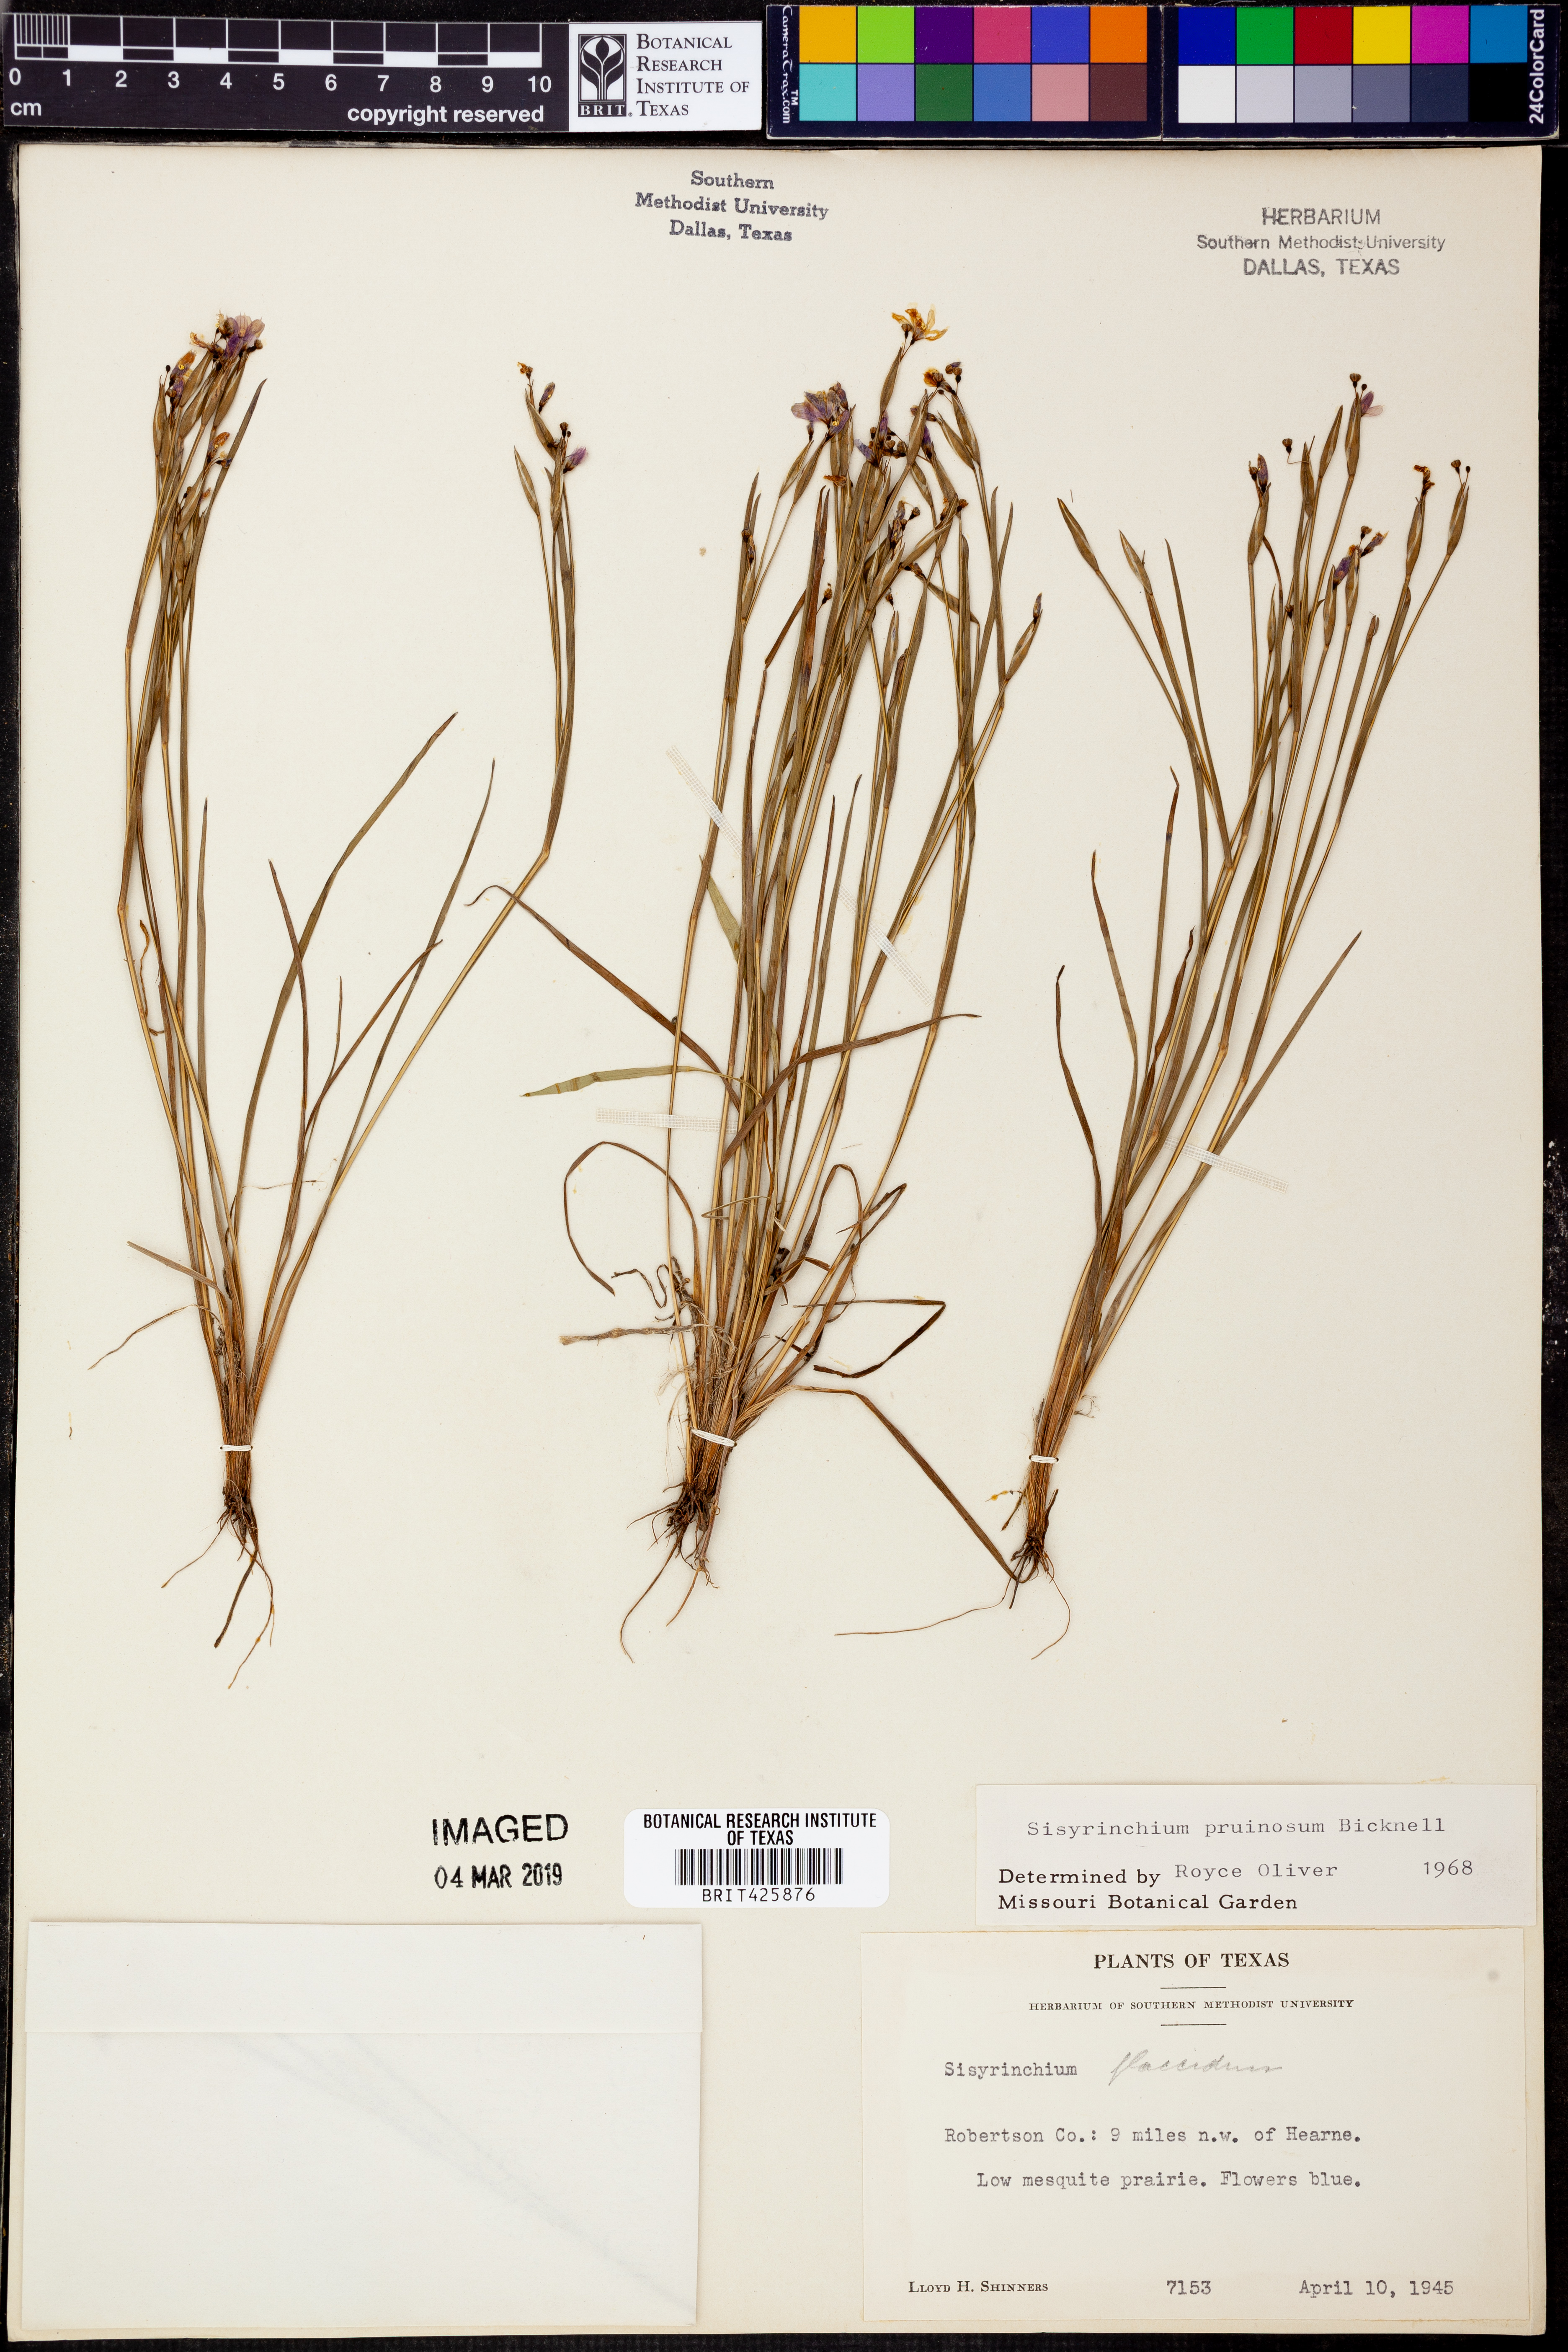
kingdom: Plantae
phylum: Tracheophyta
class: Liliopsida
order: Asparagales
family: Iridaceae
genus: Sisyrinchium
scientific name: Sisyrinchium pruinosum
